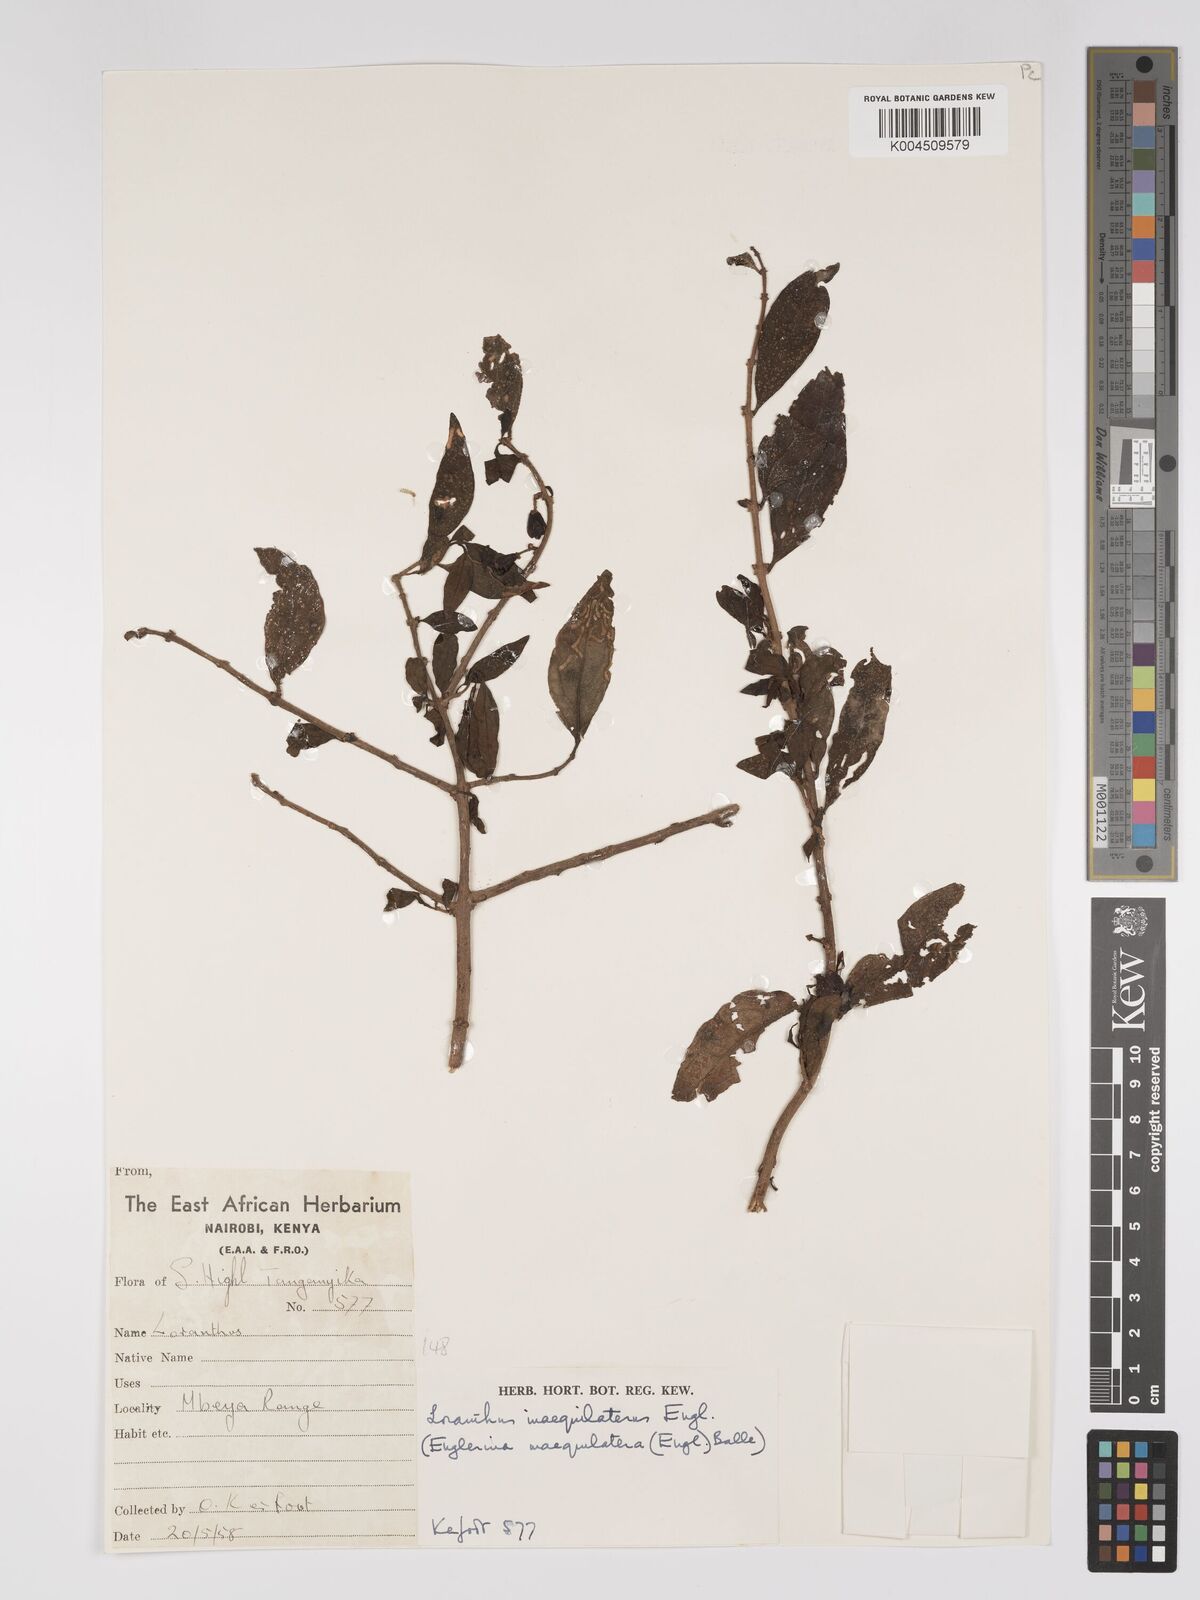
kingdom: Plantae
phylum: Tracheophyta
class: Magnoliopsida
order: Santalales
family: Loranthaceae
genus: Englerina
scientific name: Englerina inaequilatera
